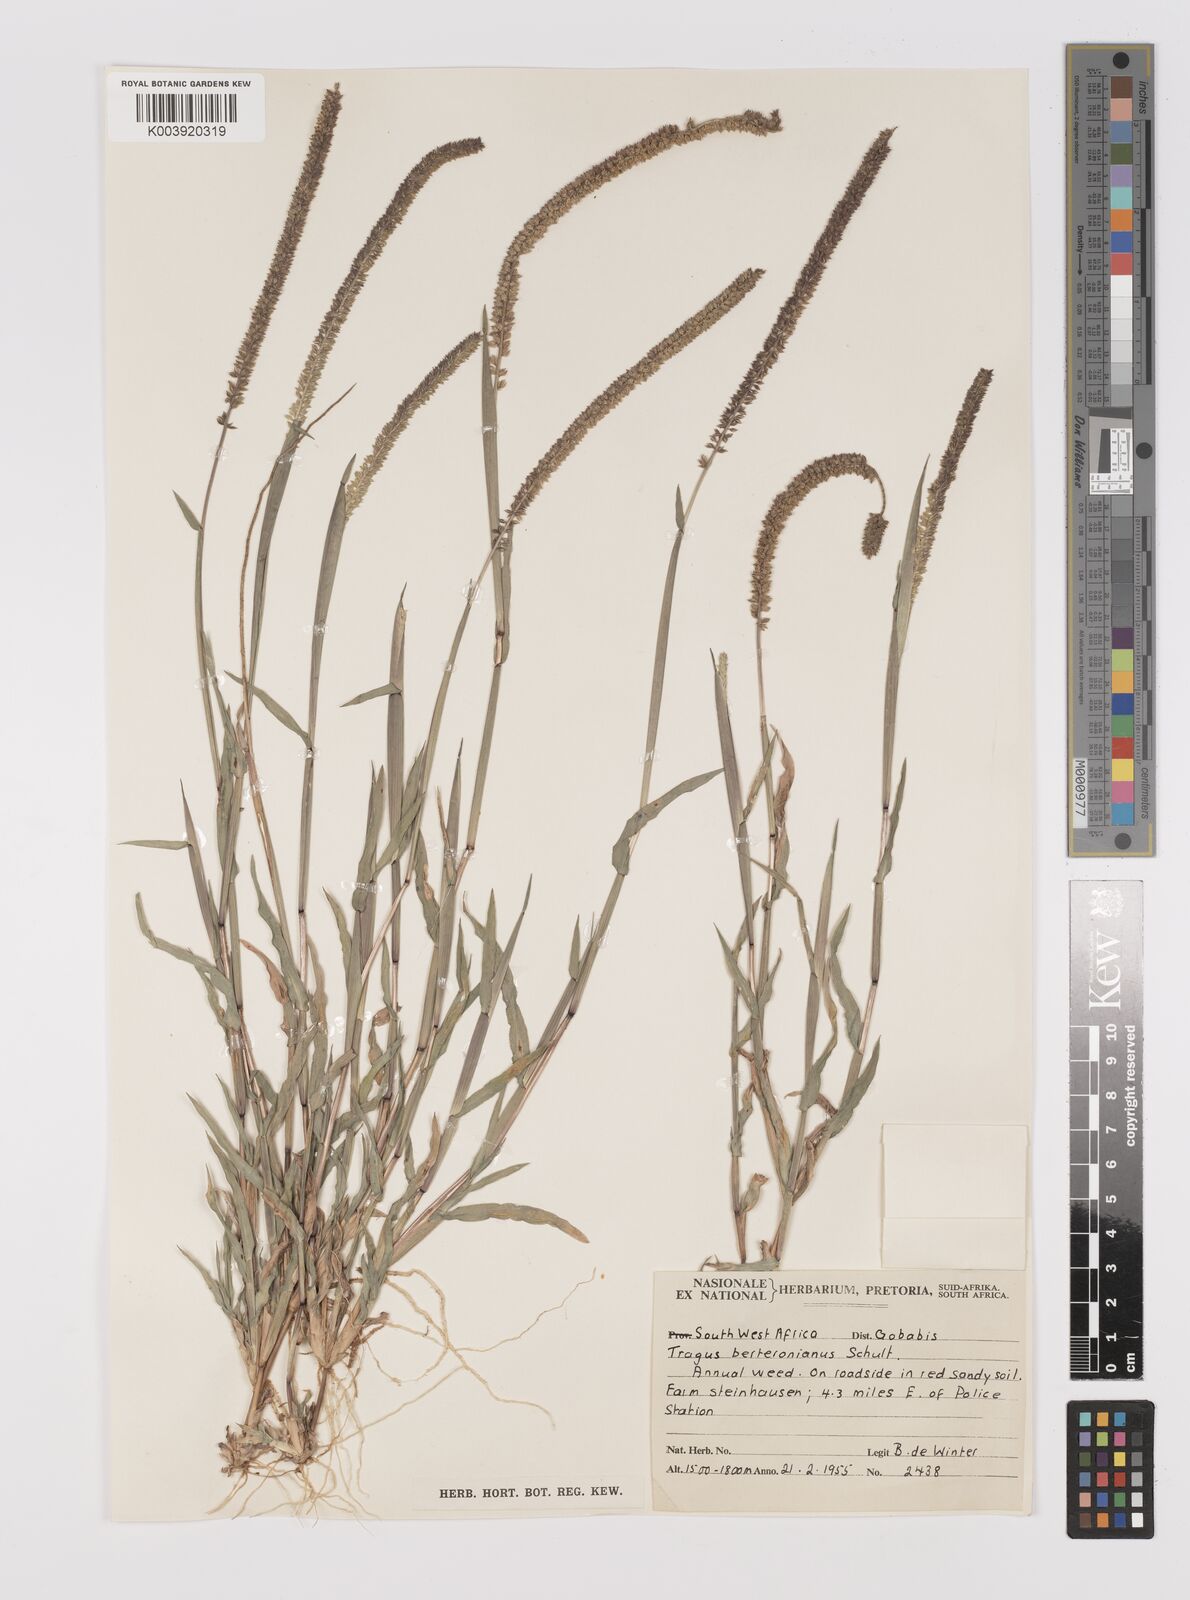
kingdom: Plantae
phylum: Tracheophyta
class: Liliopsida
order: Poales
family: Poaceae
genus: Tragus
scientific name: Tragus berteronianus
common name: African bur-grass
